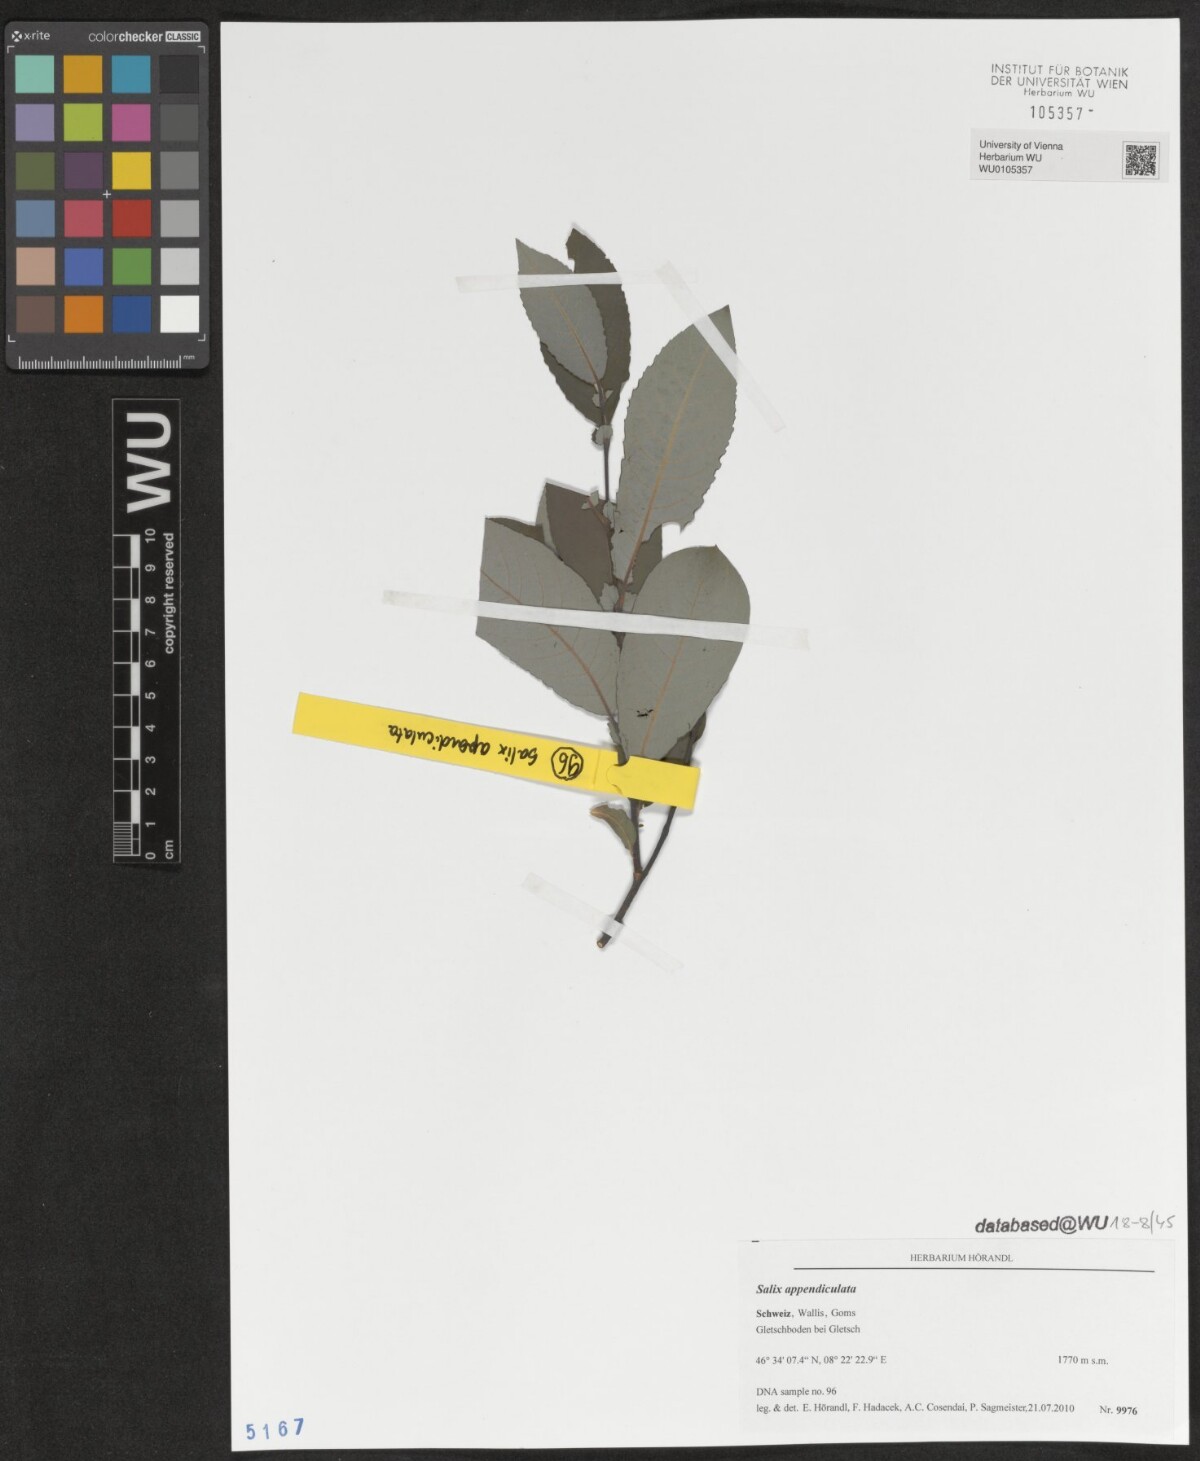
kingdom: Plantae
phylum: Tracheophyta
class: Magnoliopsida
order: Malpighiales
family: Salicaceae
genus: Salix
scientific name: Salix appendiculata
